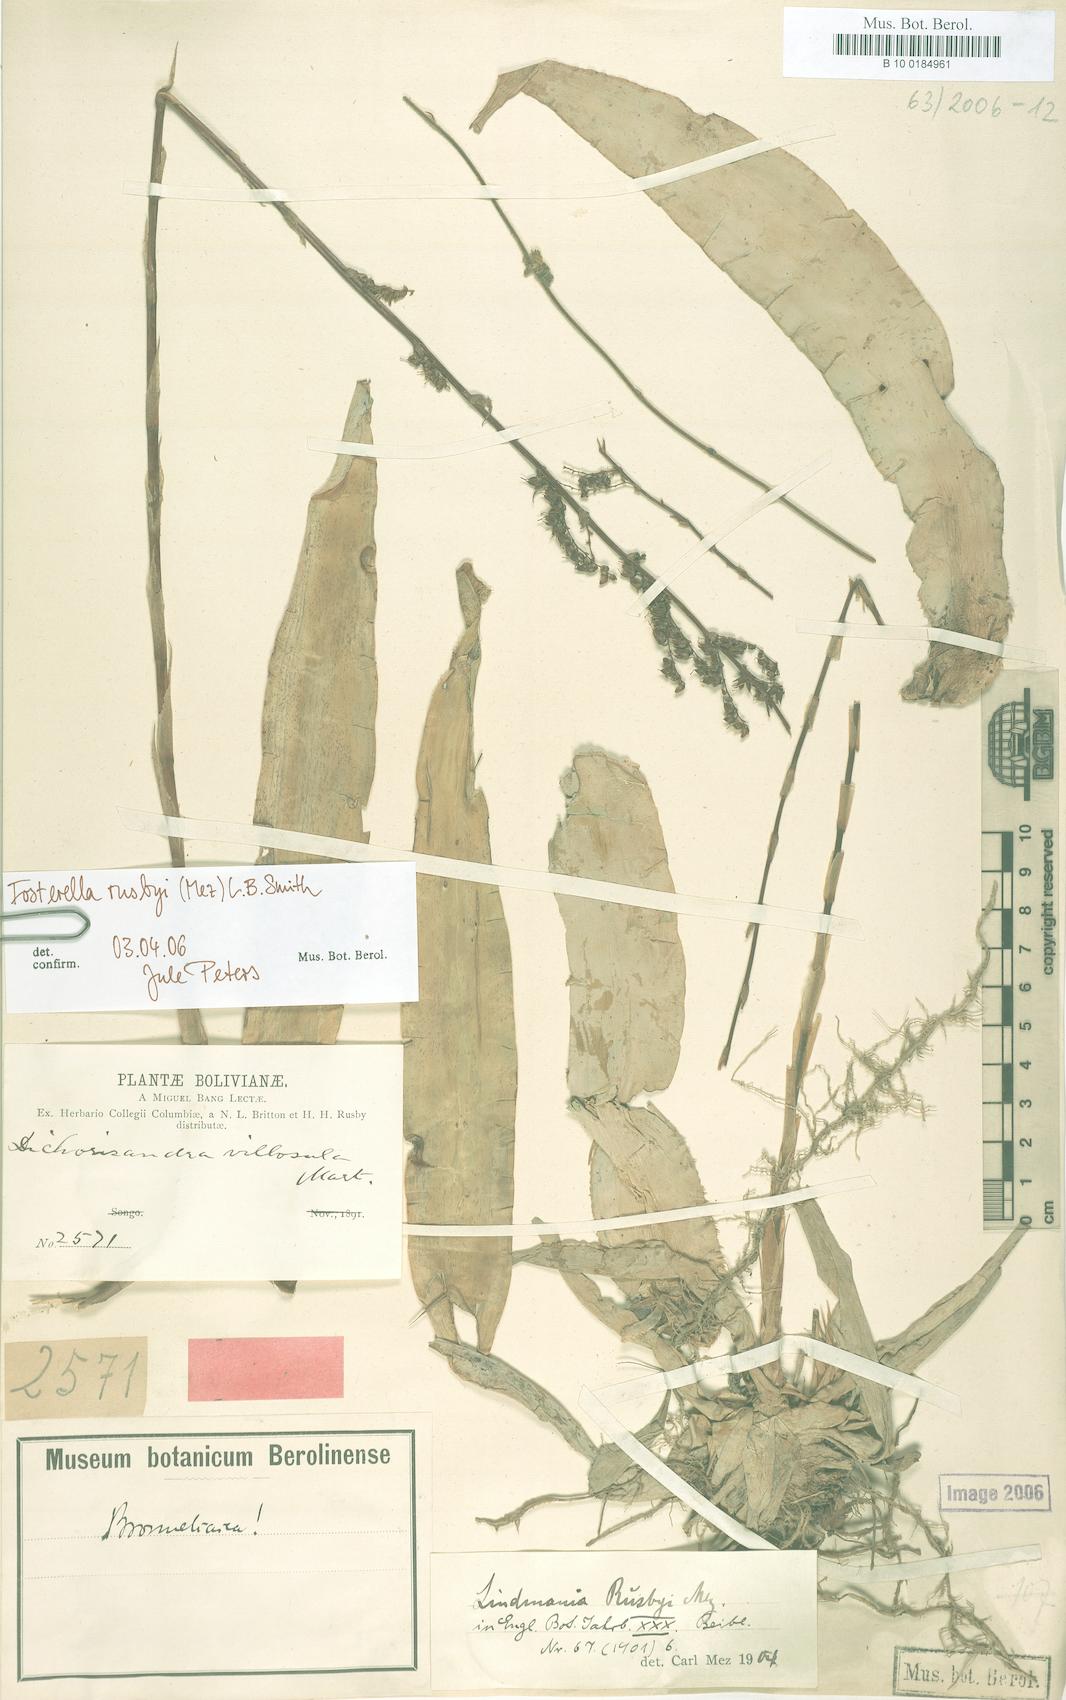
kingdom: Plantae
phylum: Tracheophyta
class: Liliopsida
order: Poales
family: Bromeliaceae
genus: Fosterella
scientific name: Fosterella rusbyi
